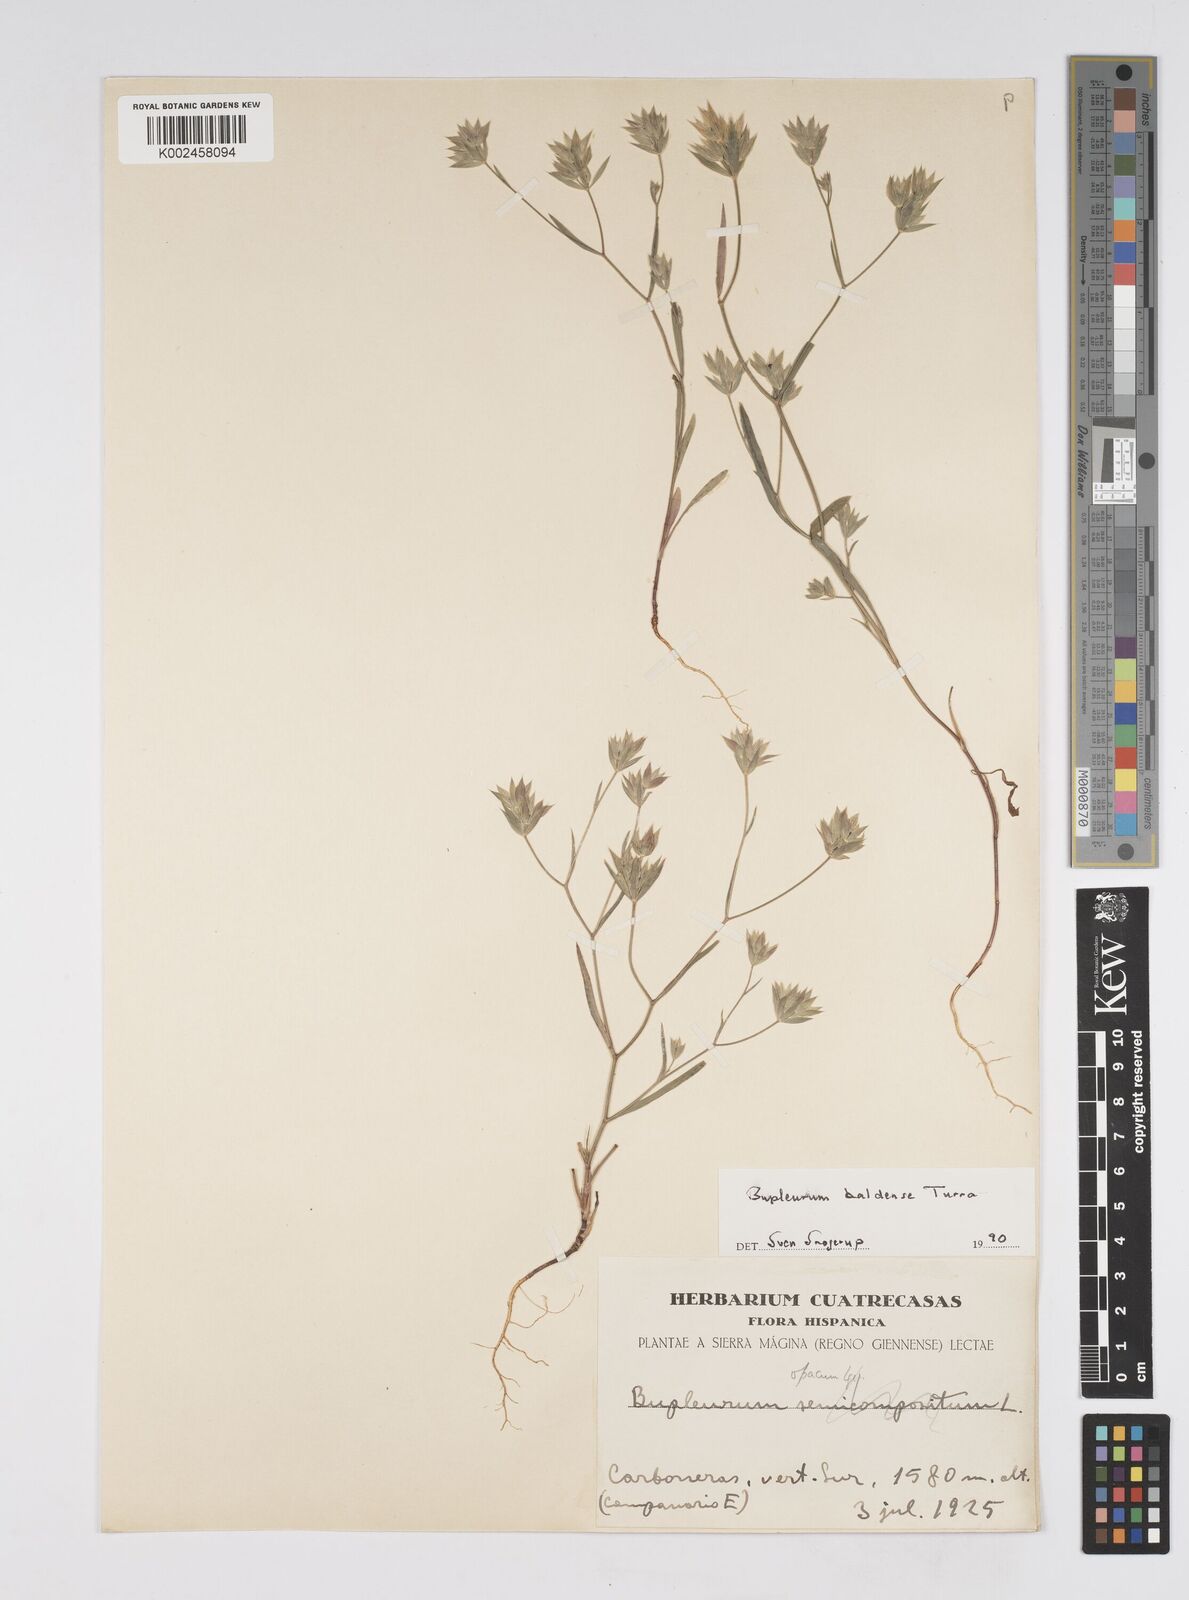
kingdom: Plantae
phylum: Tracheophyta
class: Magnoliopsida
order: Apiales
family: Apiaceae
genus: Bupleurum
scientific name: Bupleurum baldense
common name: Small hare's-ear
